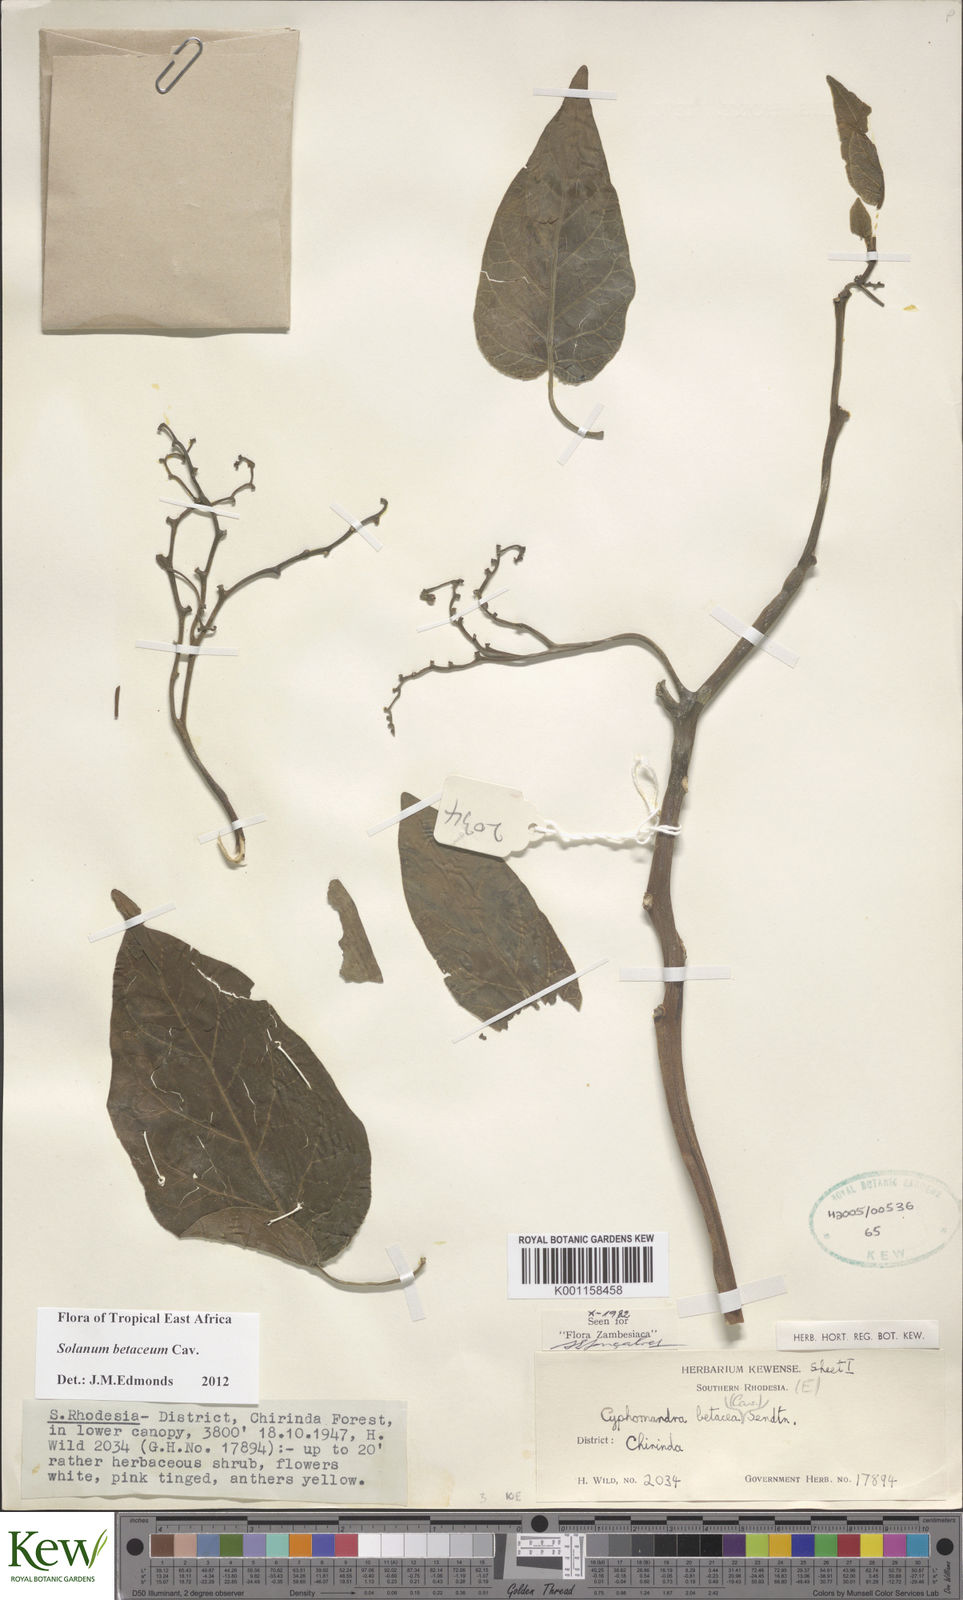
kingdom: Plantae
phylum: Tracheophyta
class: Magnoliopsida
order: Solanales
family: Solanaceae
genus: Solanum
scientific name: Solanum betaceum
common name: Tamarillo
